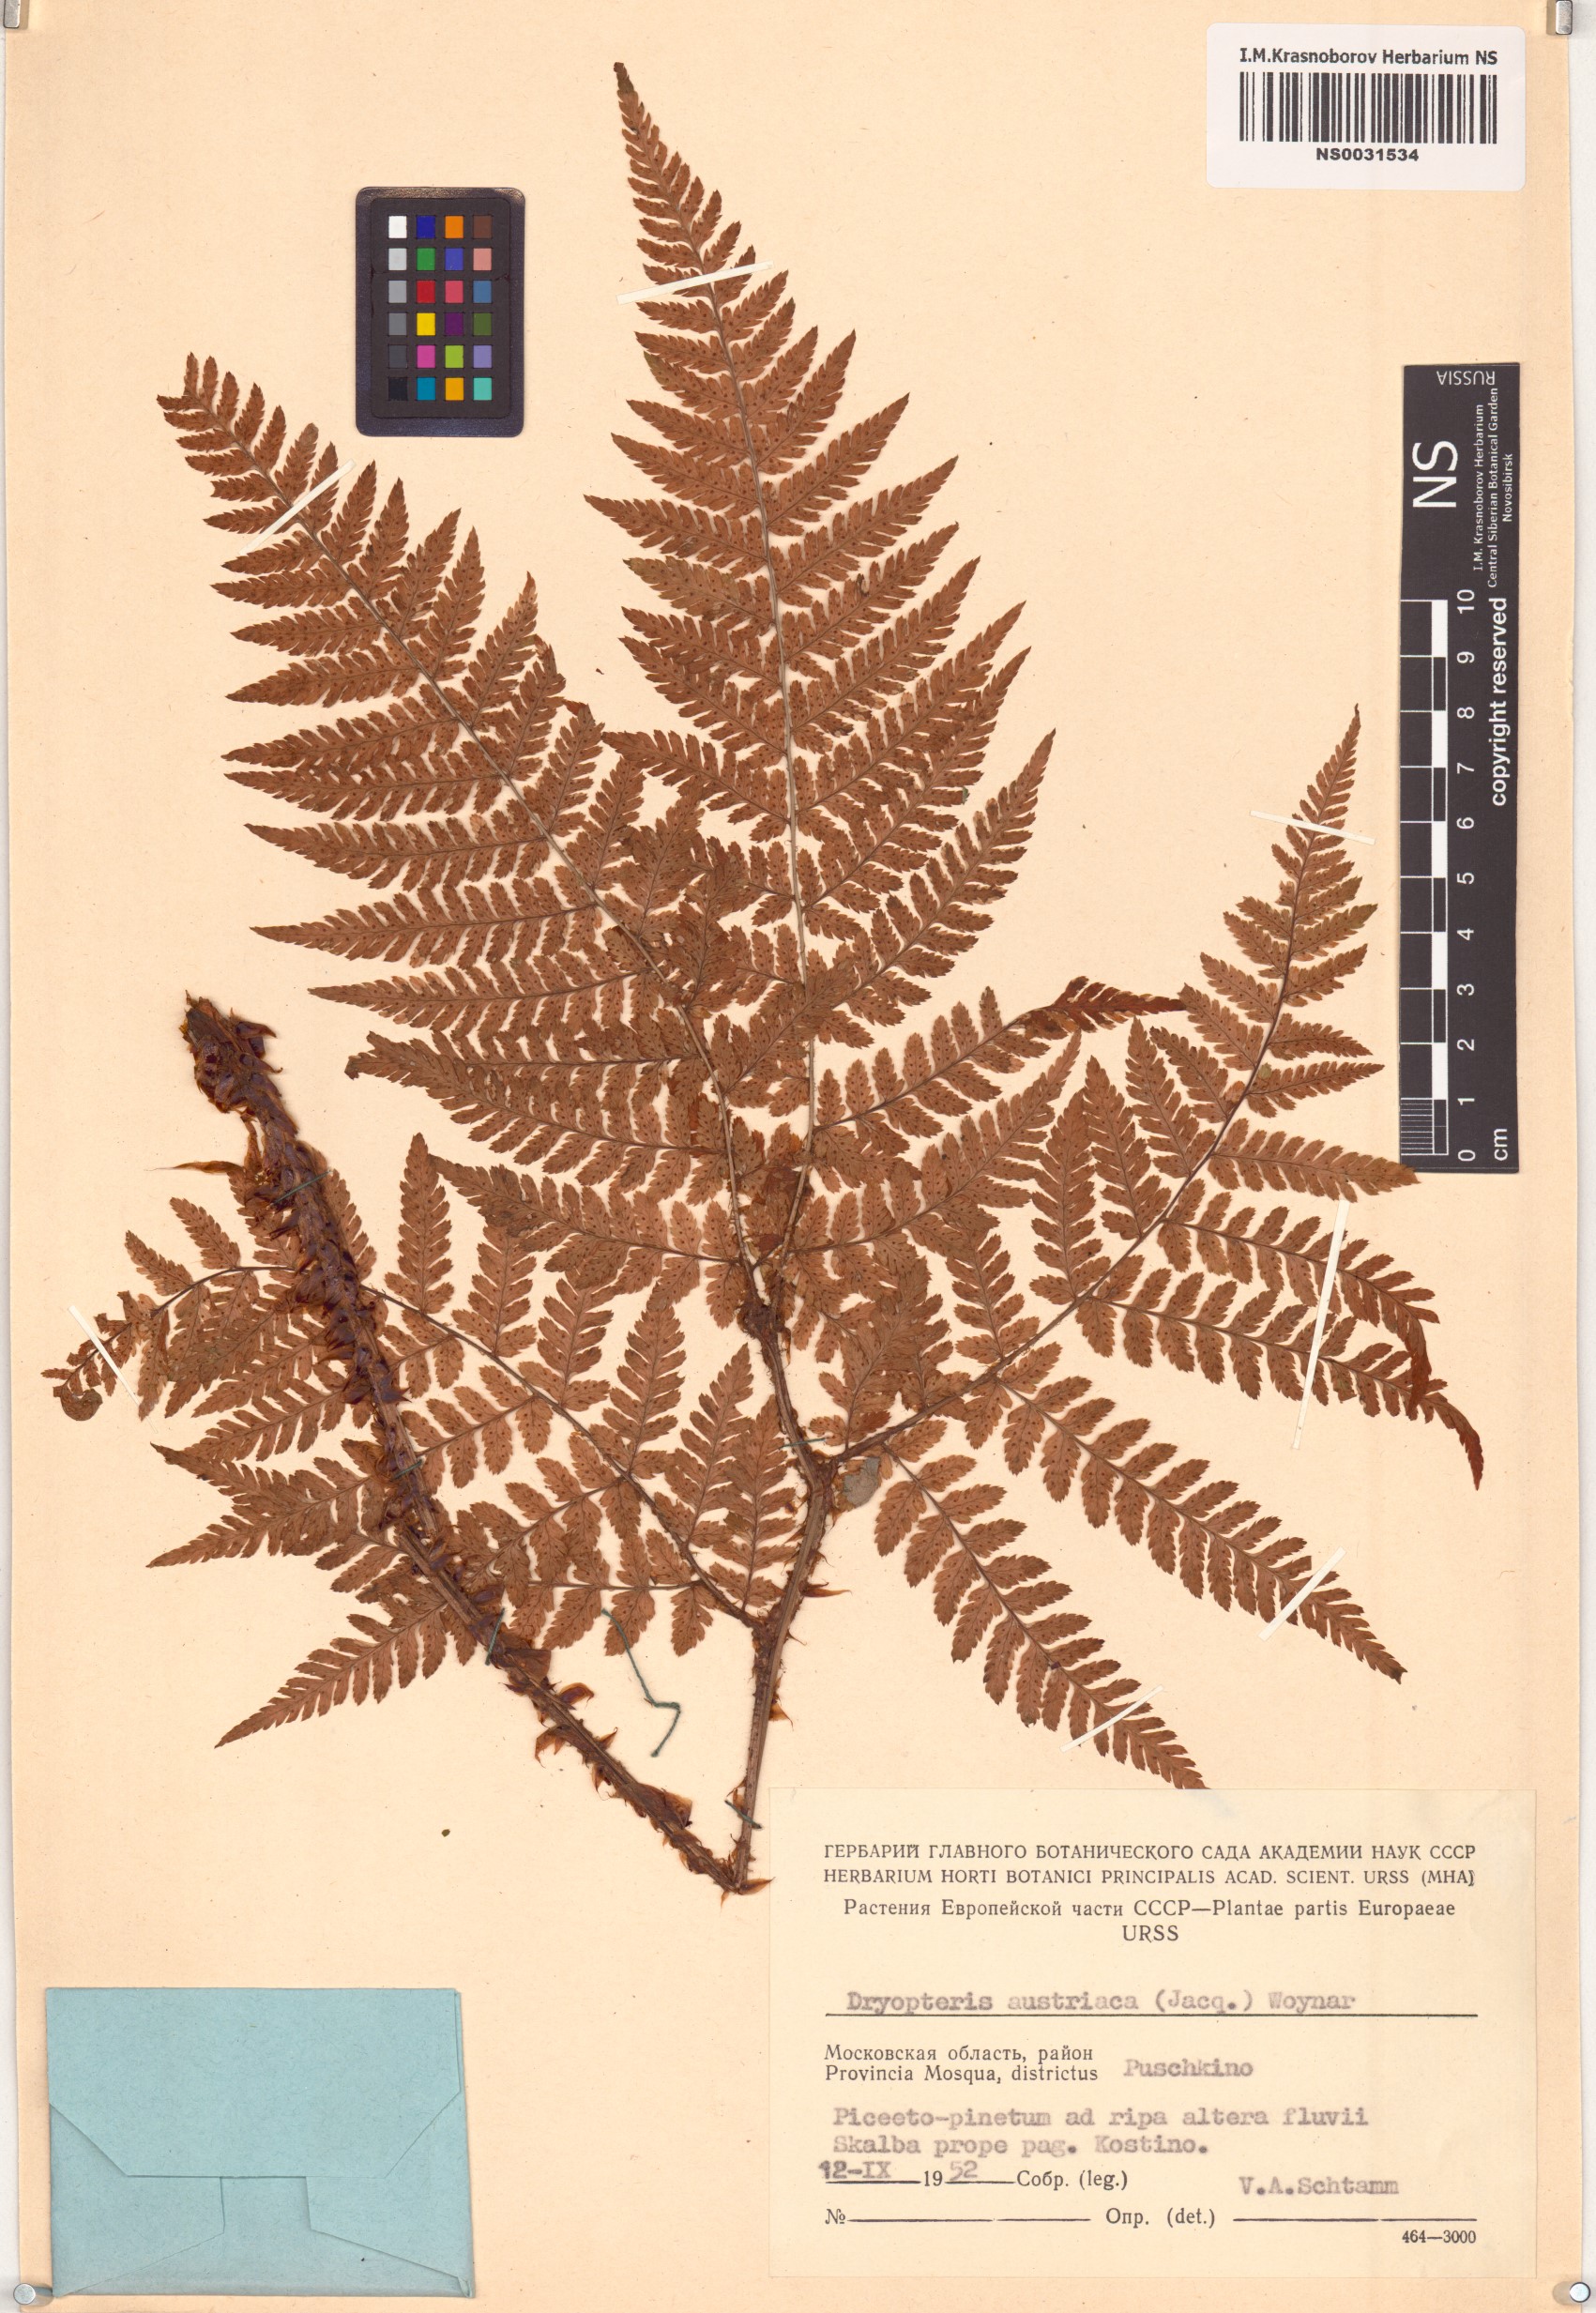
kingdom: Plantae
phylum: Tracheophyta
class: Polypodiopsida
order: Polypodiales
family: Dryopteridaceae
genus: Dryopteris
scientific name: Dryopteris dilatata
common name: Broad buckler-fern
